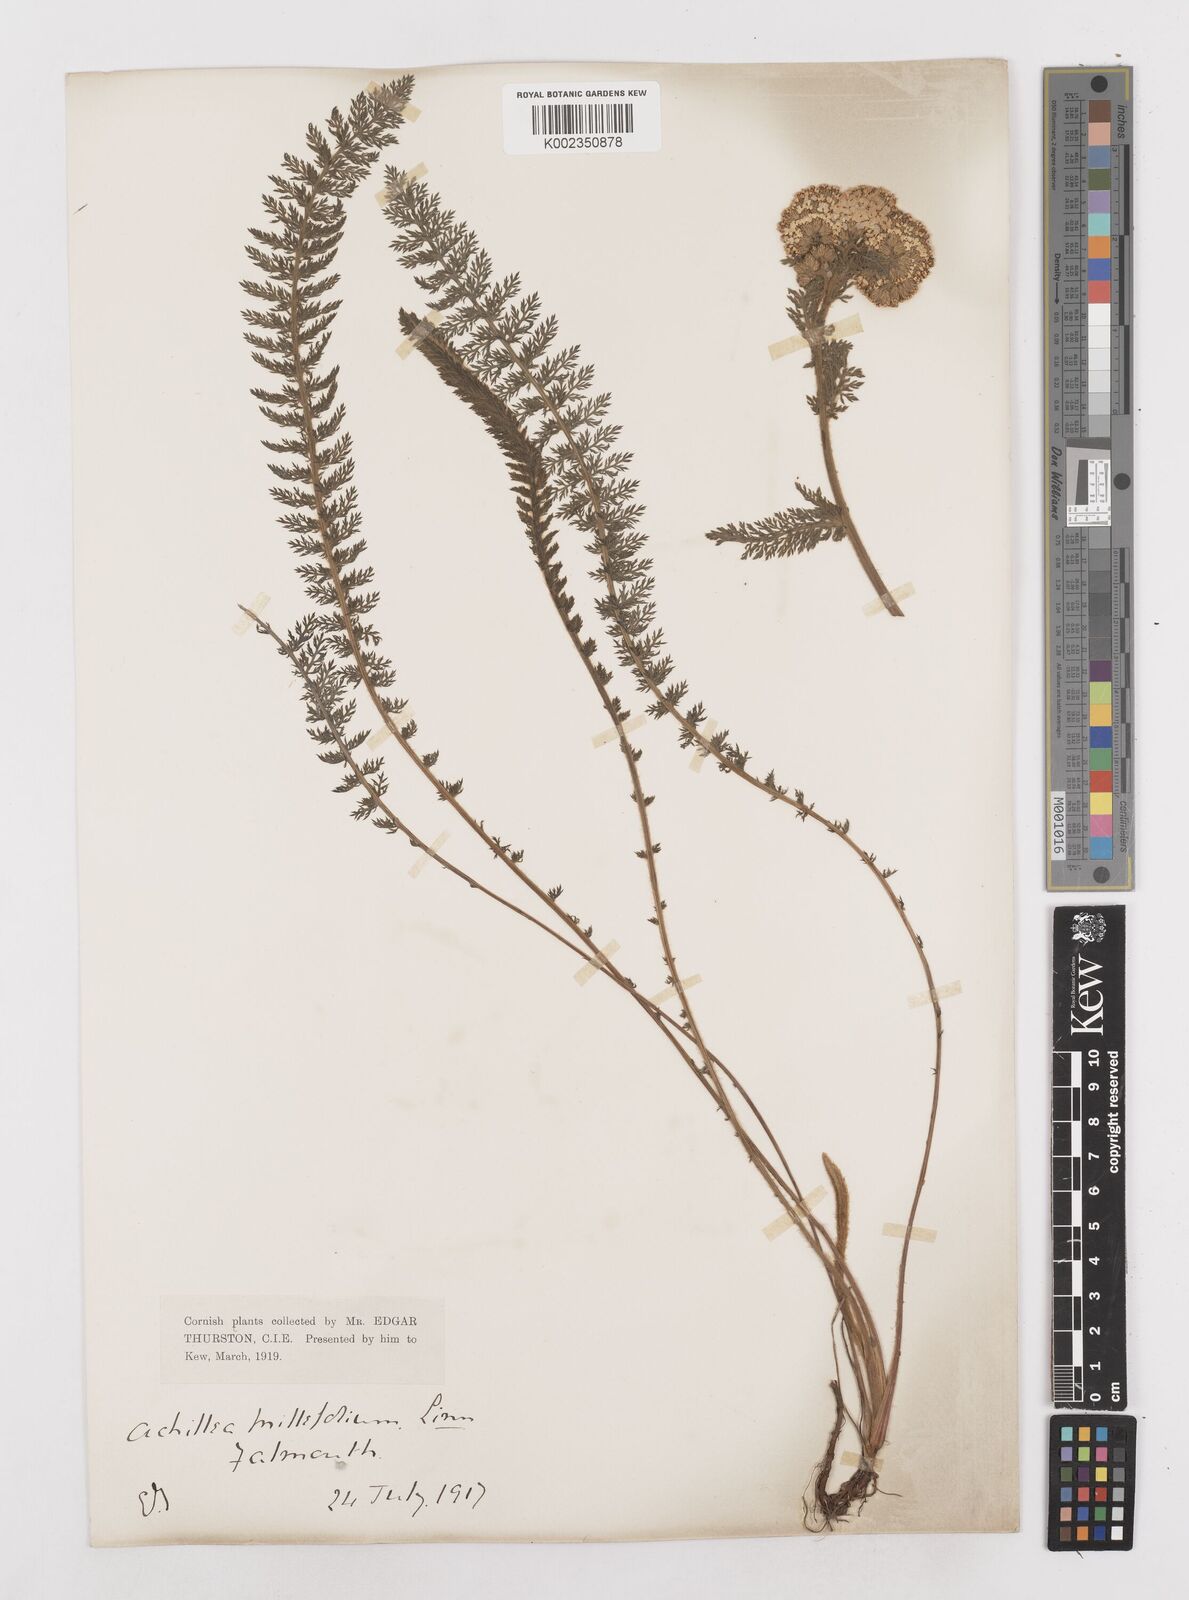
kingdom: Plantae
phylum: Tracheophyta
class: Magnoliopsida
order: Asterales
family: Asteraceae
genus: Achillea
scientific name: Achillea millefolium
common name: Yarrow
